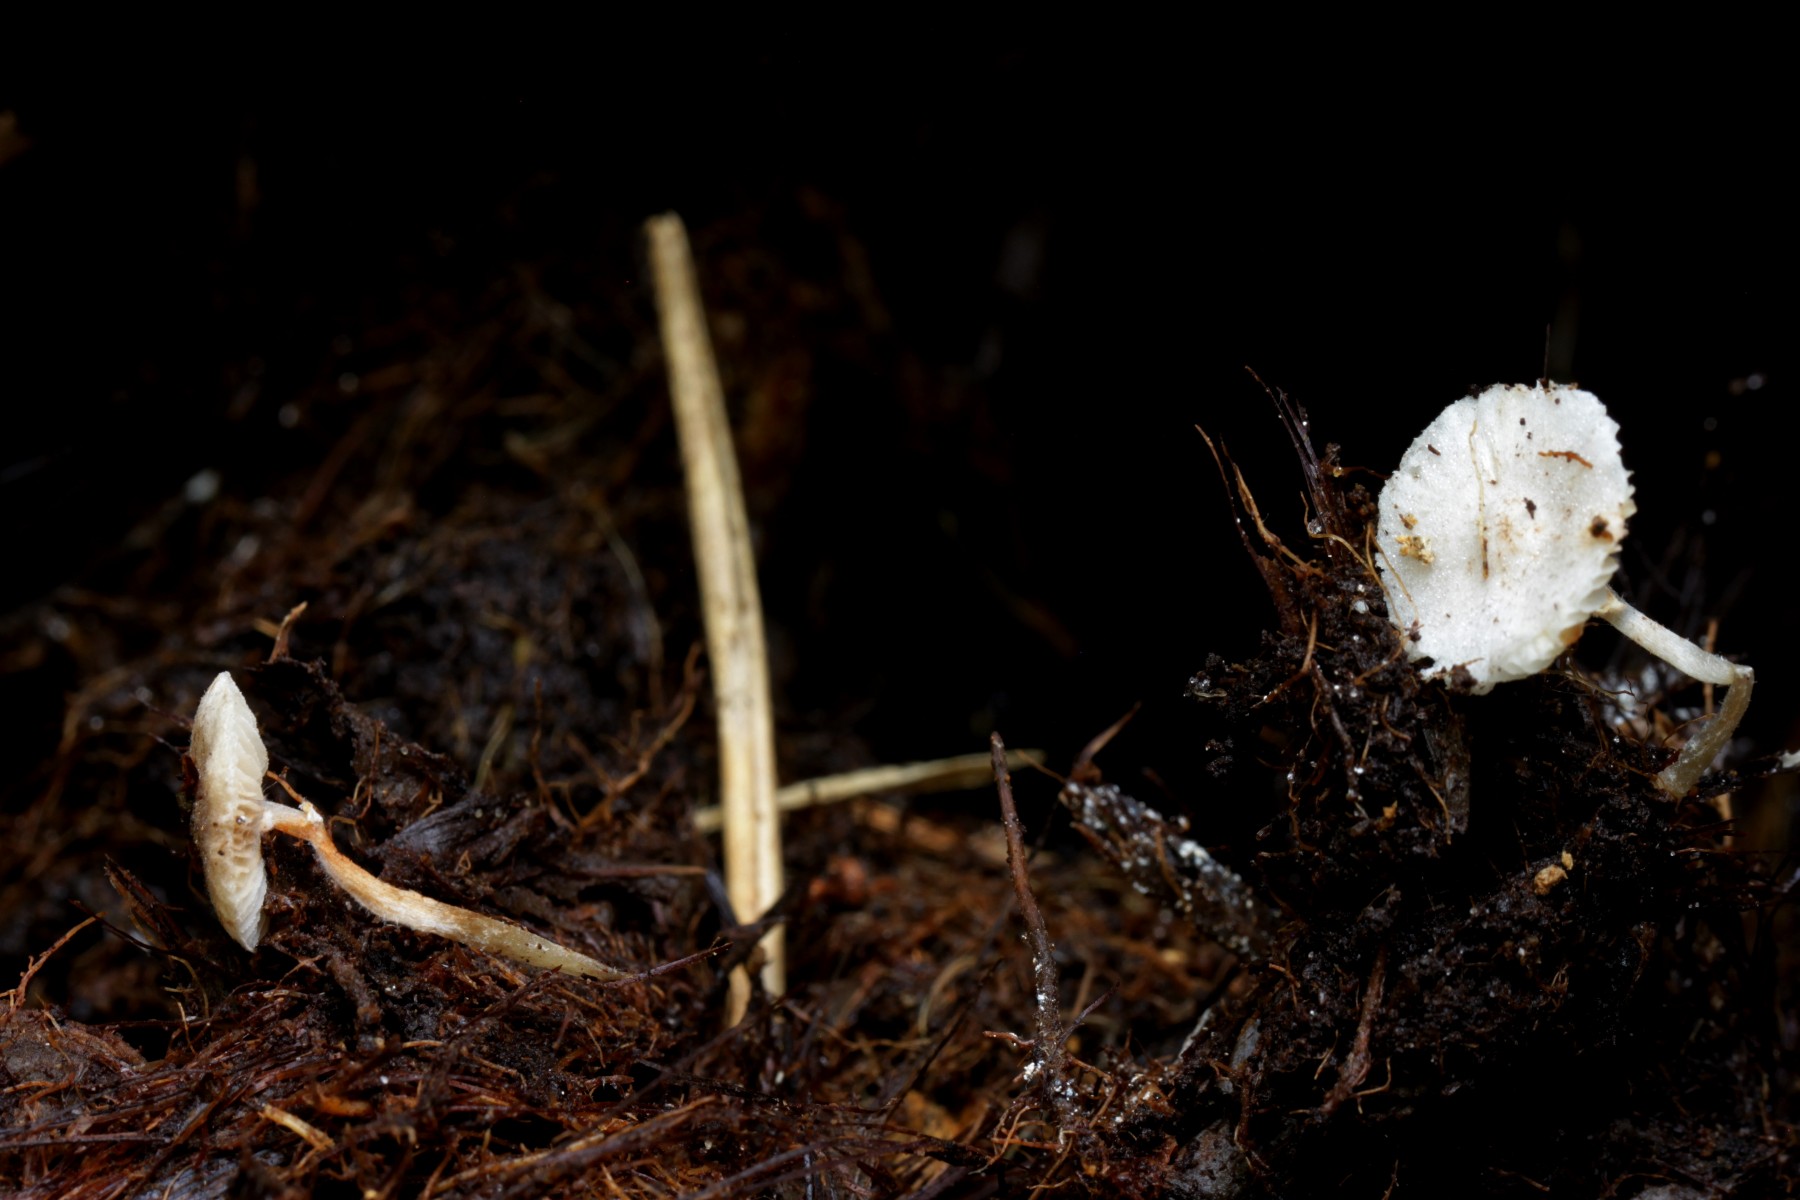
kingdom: Fungi
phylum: Basidiomycota
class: Agaricomycetes
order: Agaricales
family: Agaricaceae
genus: Leucoagaricus
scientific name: Leucoagaricus melanotrichus
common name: gråhåret silkehat
